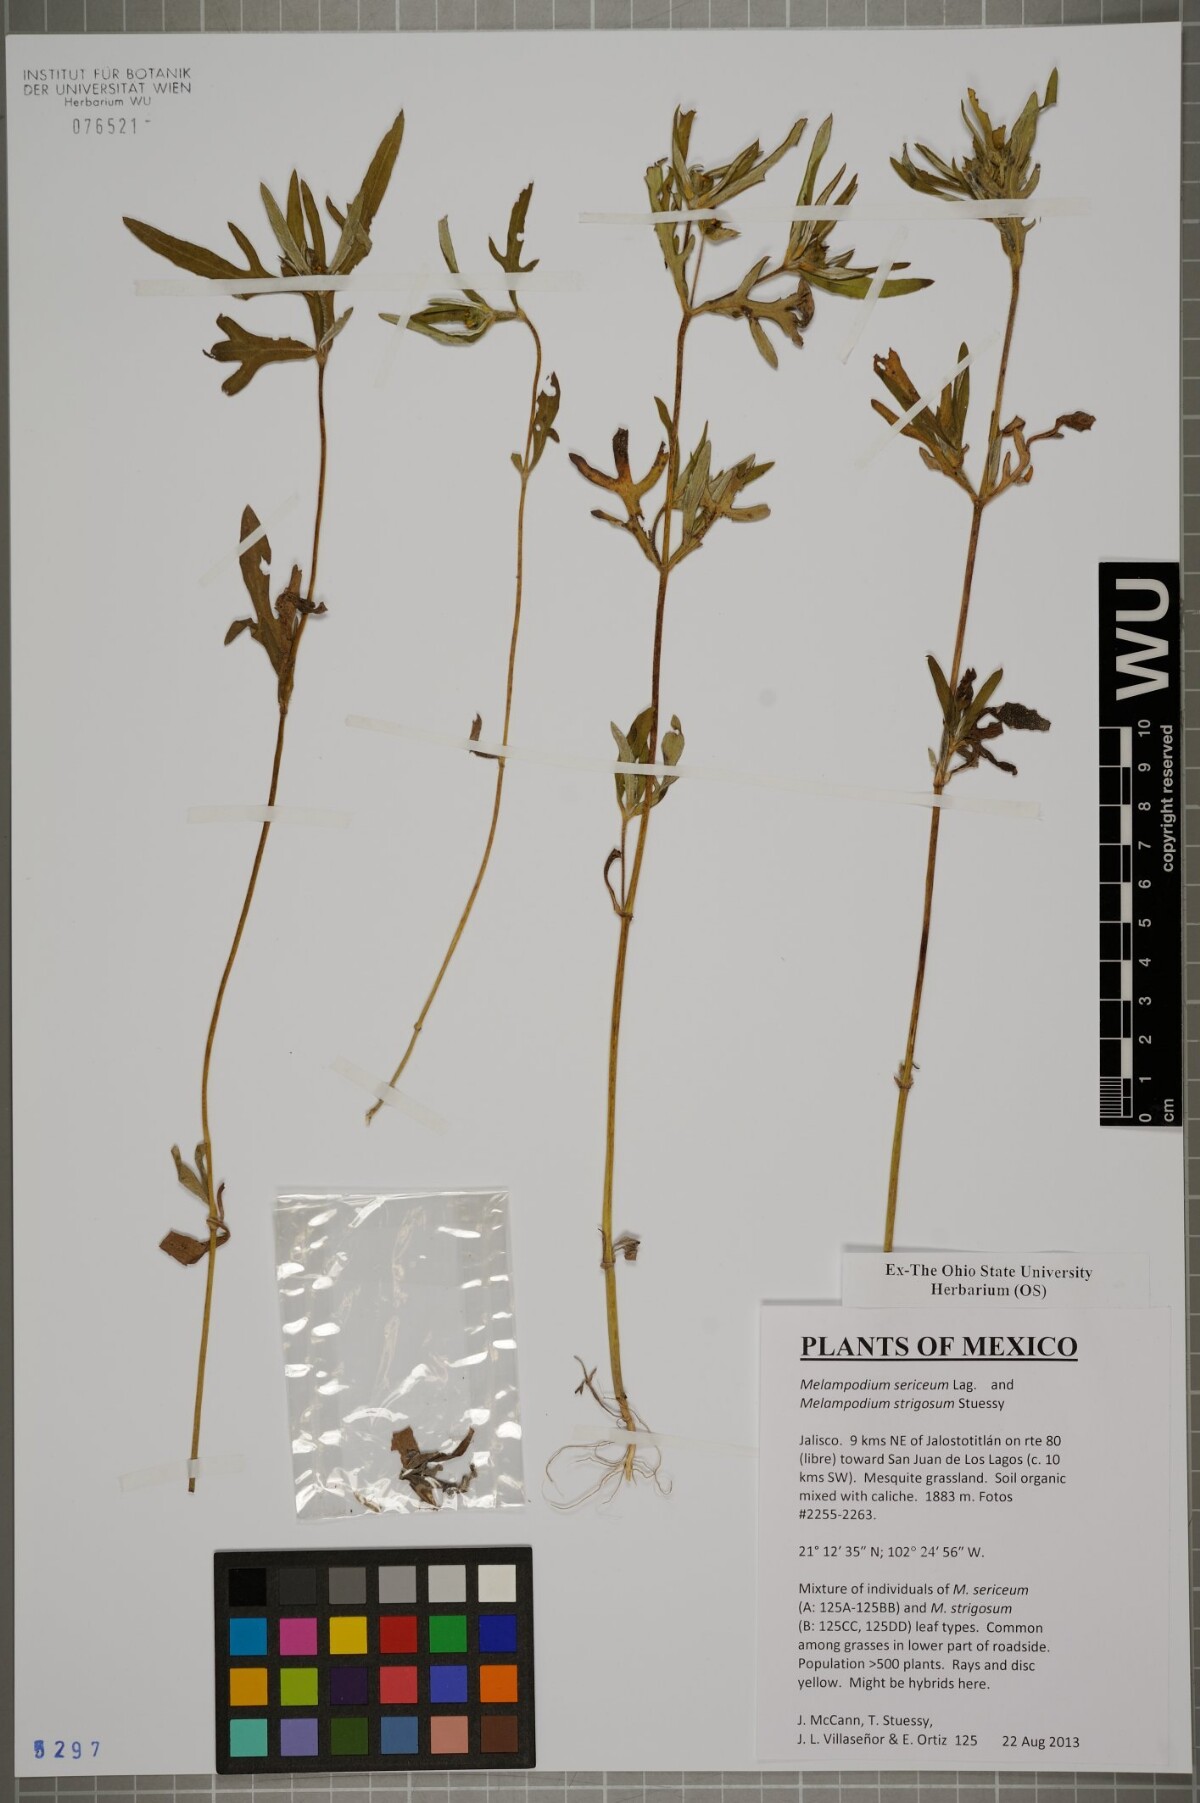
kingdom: Plantae
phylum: Tracheophyta
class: Magnoliopsida
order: Asterales
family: Asteraceae
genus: Melampodium
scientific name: Melampodium sericeum
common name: Rough blackfoot
